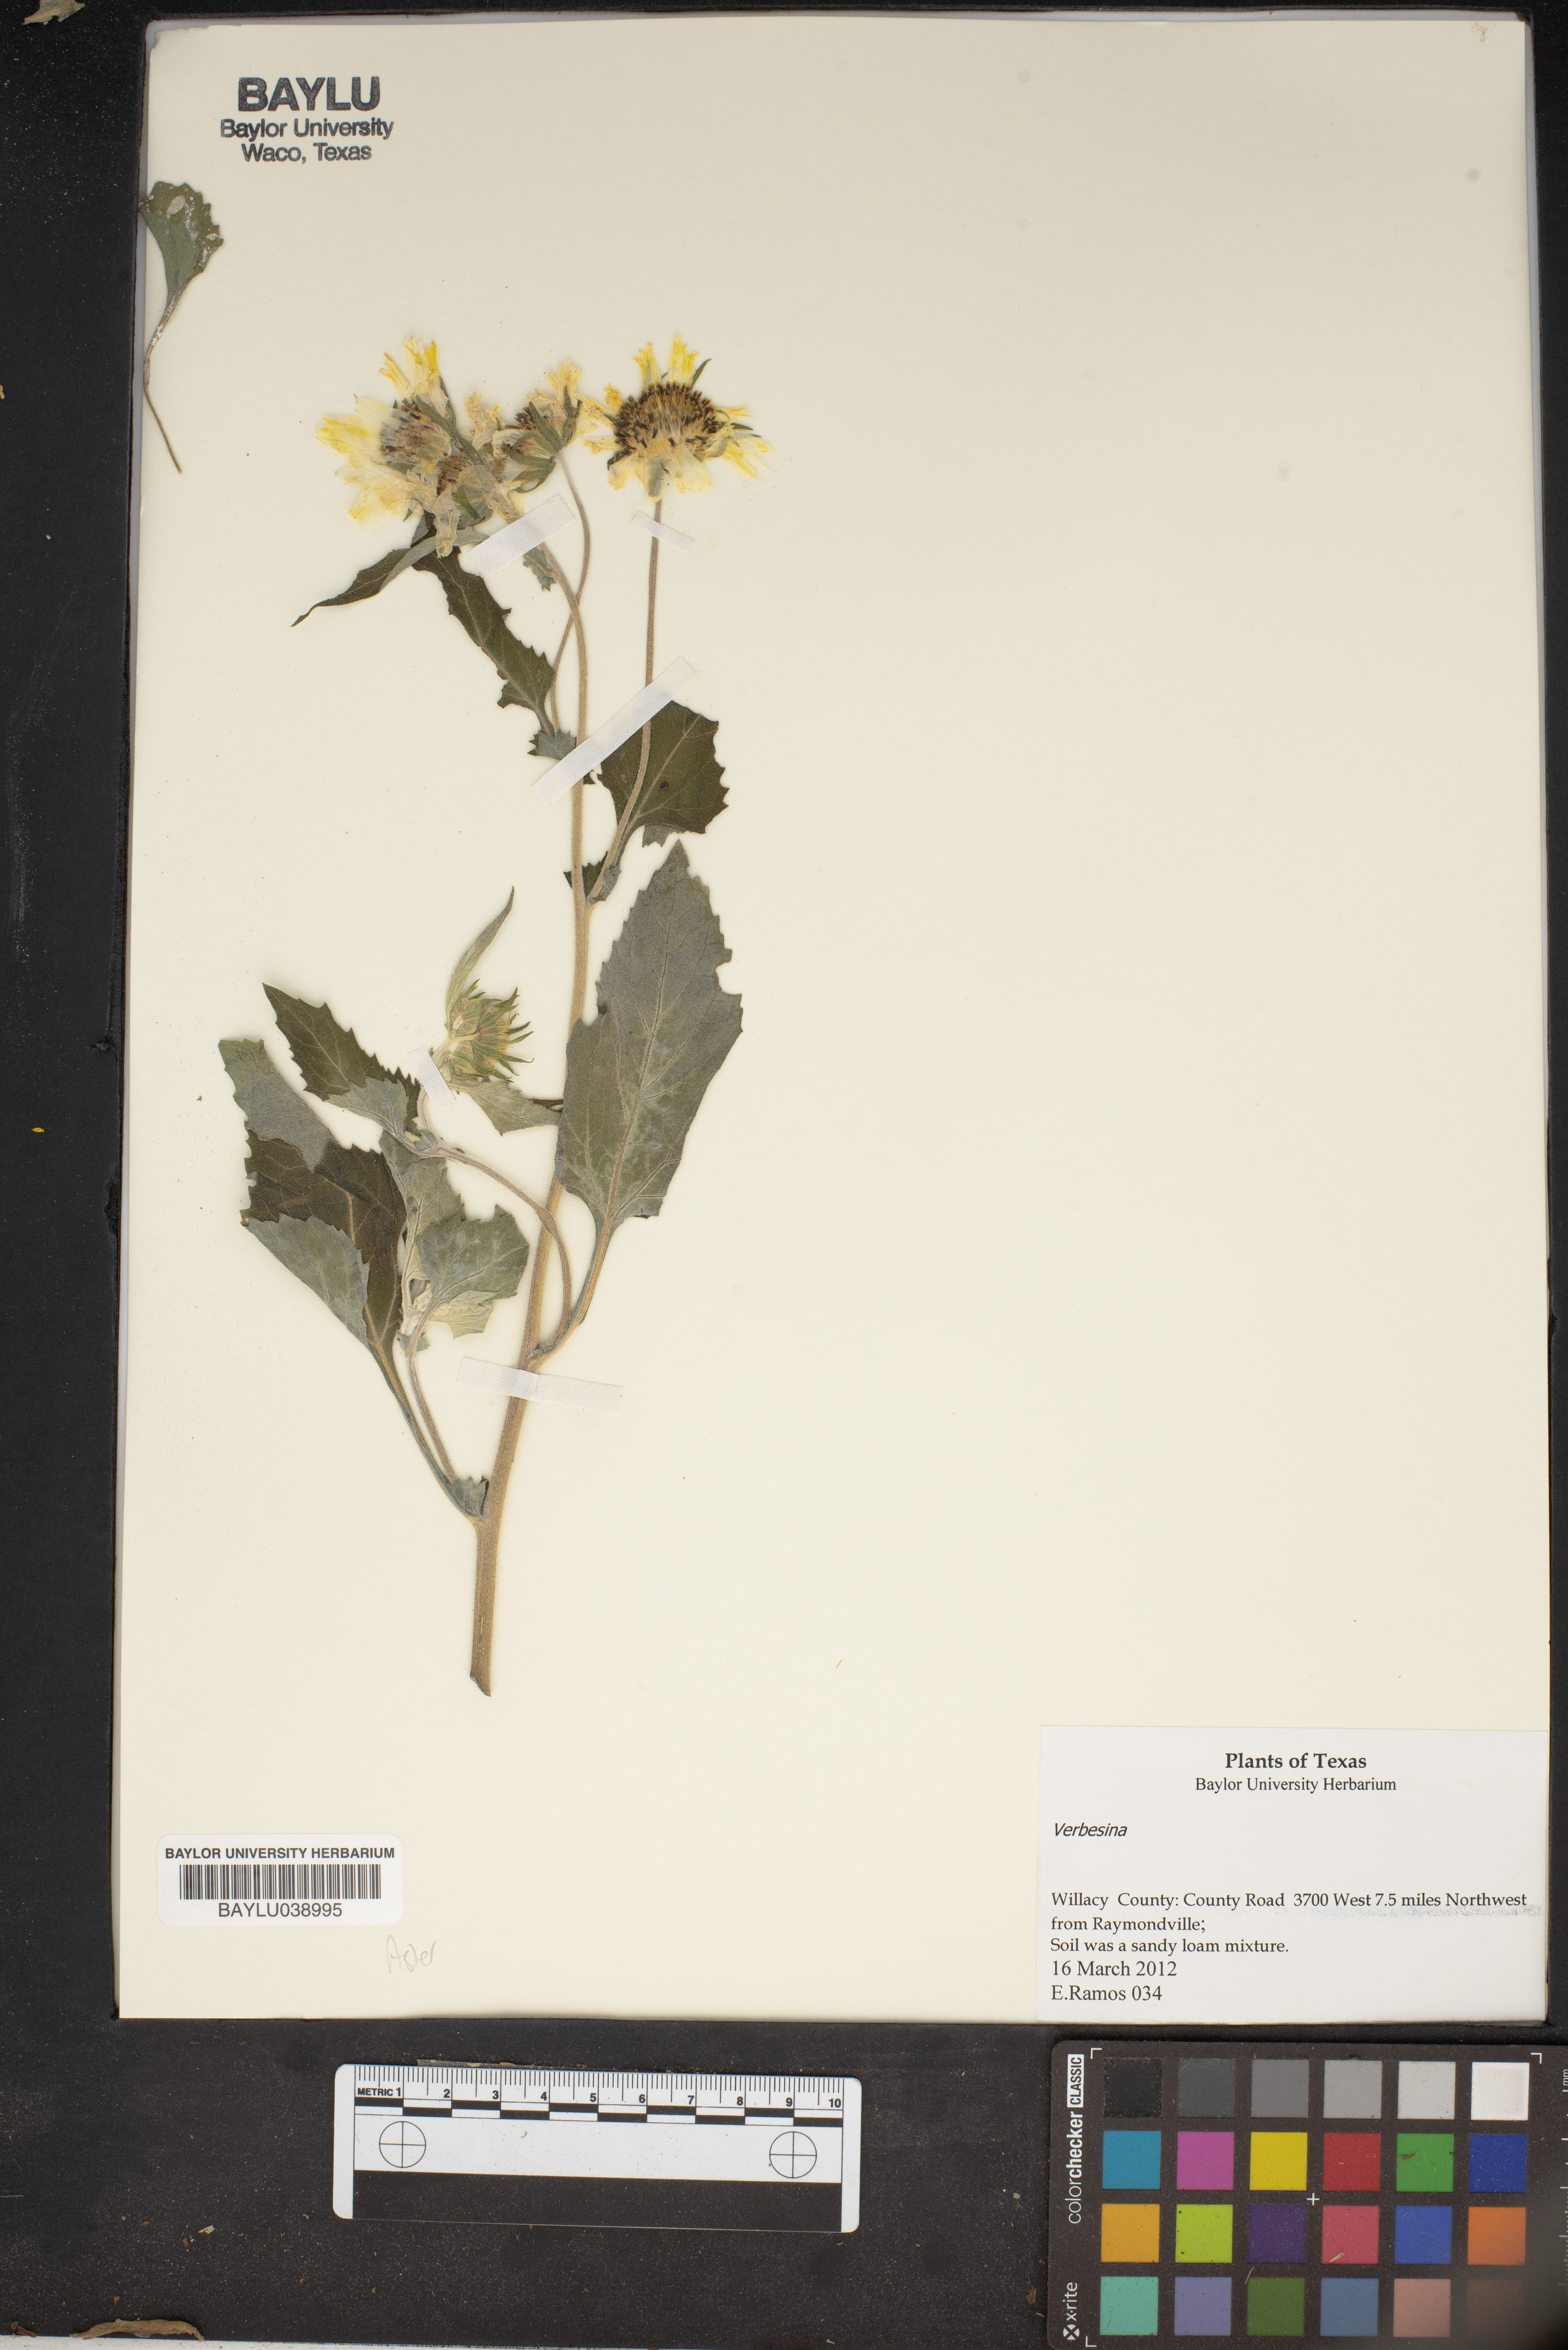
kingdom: Plantae
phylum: Tracheophyta
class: Magnoliopsida
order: Asterales
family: Asteraceae
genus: Verbesina
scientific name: Verbesina
